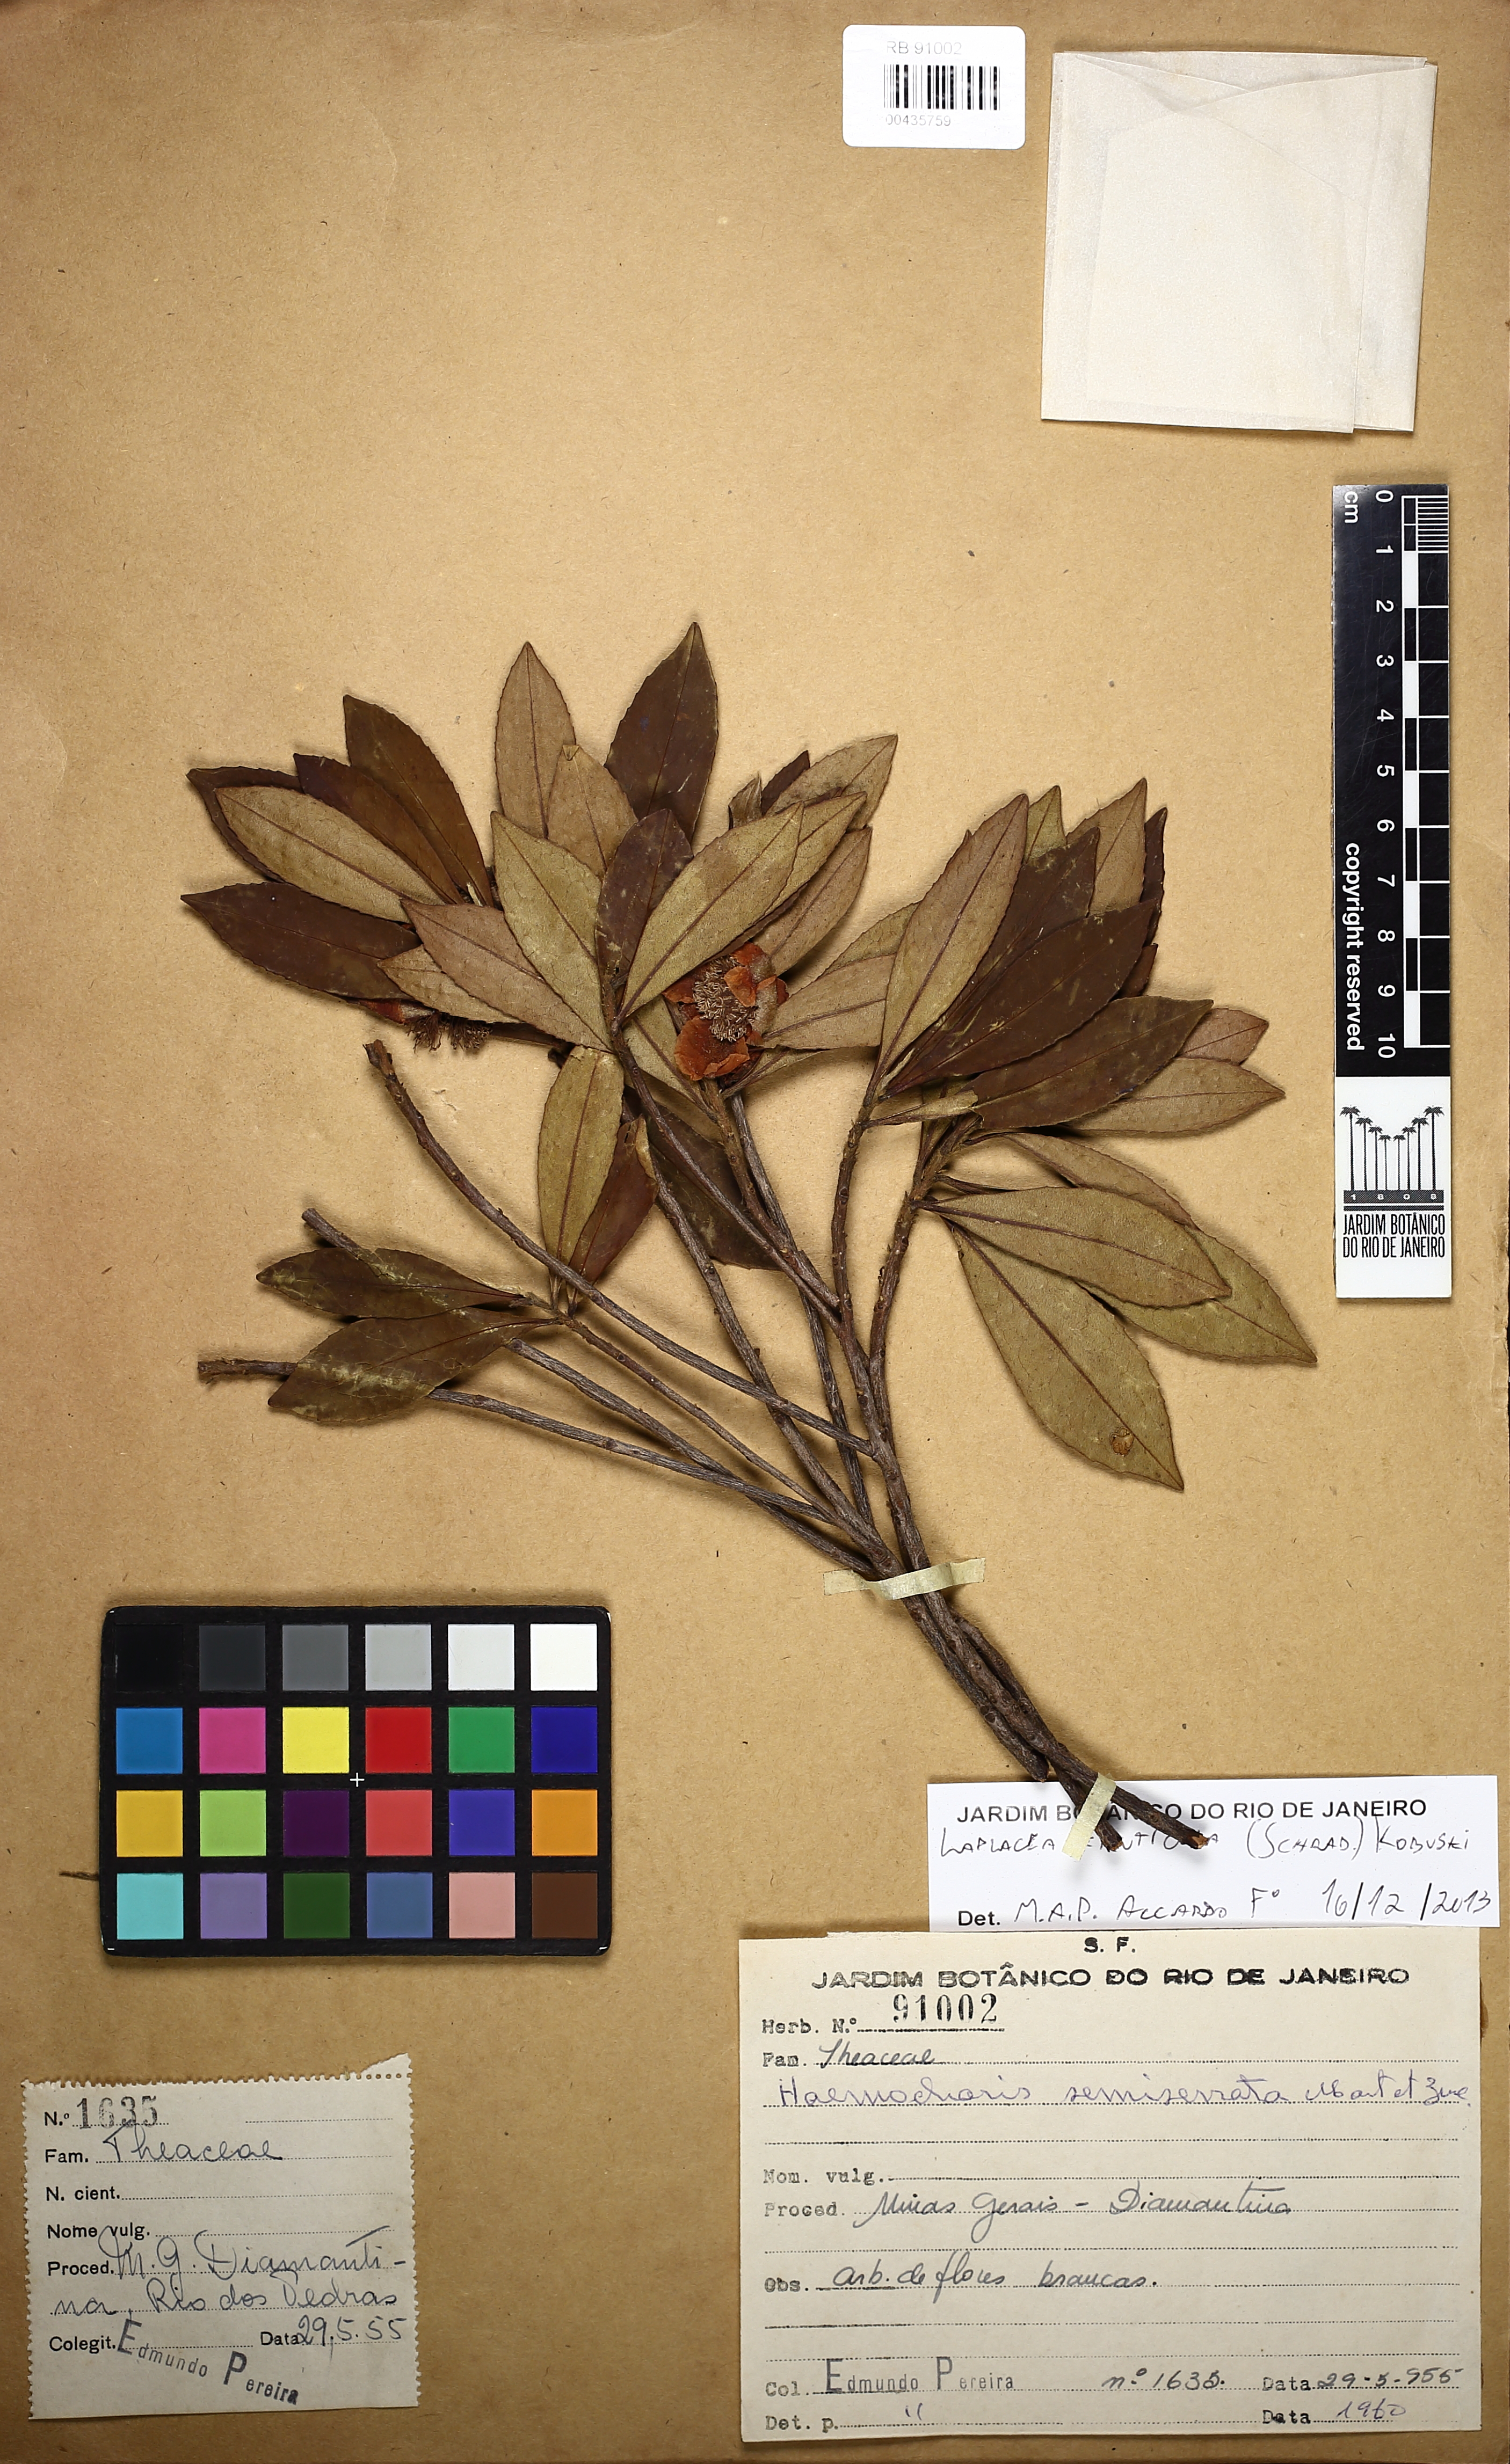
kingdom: Plantae
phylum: Tracheophyta
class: Magnoliopsida
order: Ericales
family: Theaceae
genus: Gordonia
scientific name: Gordonia fruticosa
